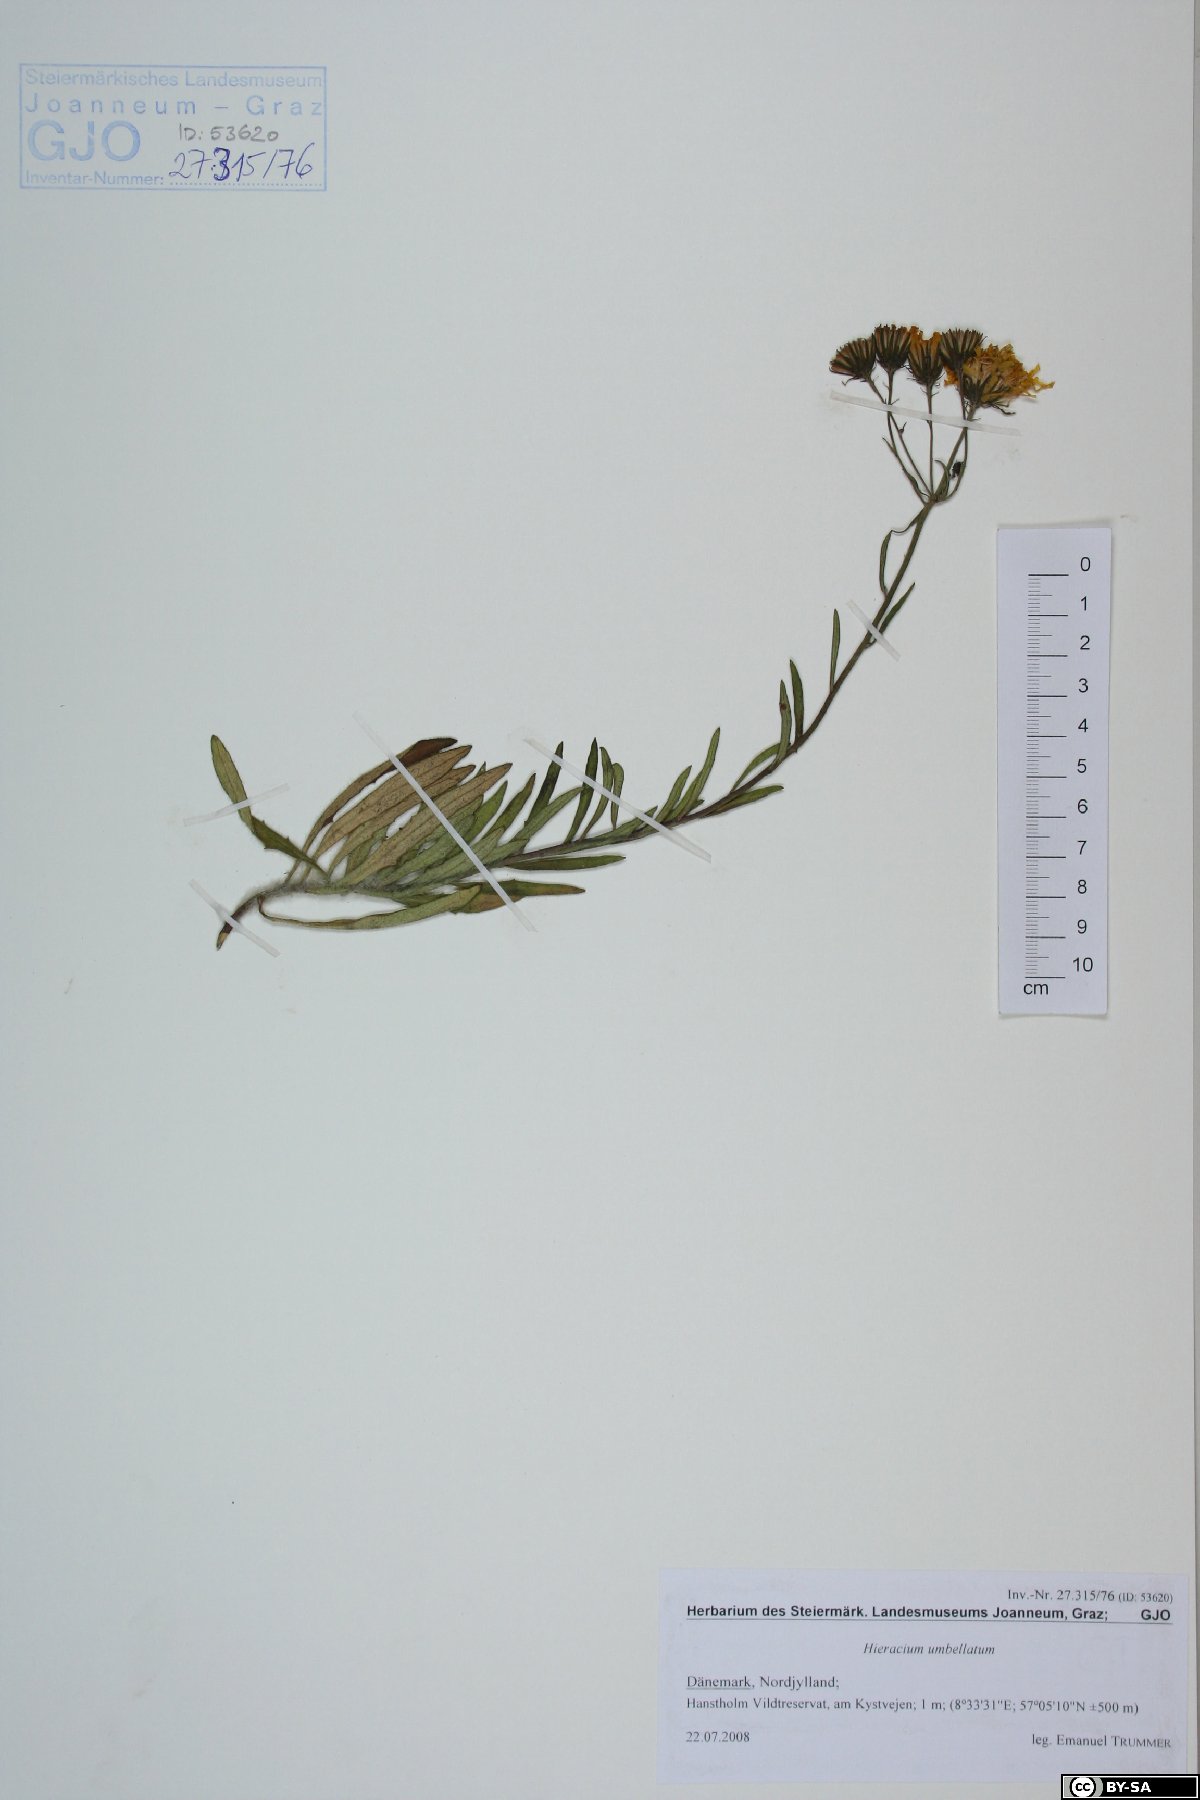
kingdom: Plantae
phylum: Tracheophyta
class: Magnoliopsida
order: Asterales
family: Asteraceae
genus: Hieracium
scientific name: Hieracium umbellatum
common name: Northern hawkweed
